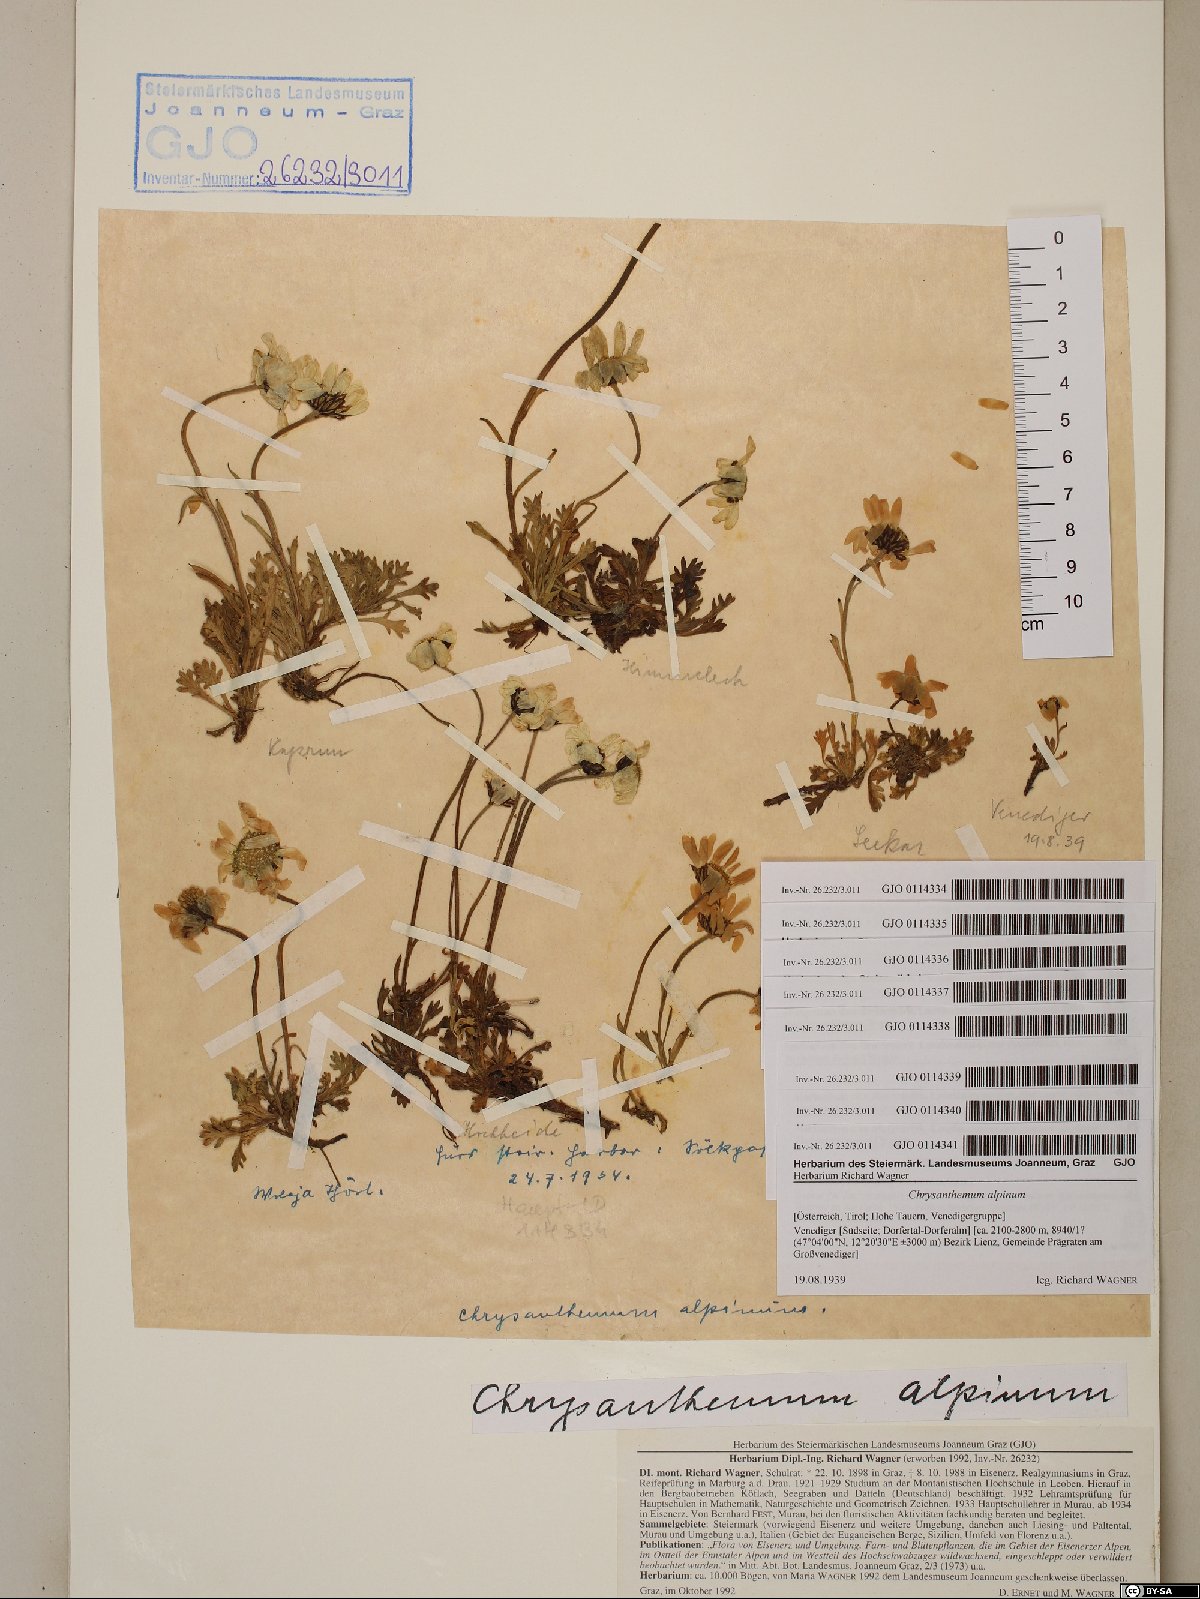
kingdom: Plantae
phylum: Tracheophyta
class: Magnoliopsida
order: Asterales
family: Asteraceae
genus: Leucanthemopsis
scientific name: Leucanthemopsis alpina
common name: Alpine moon daisy
